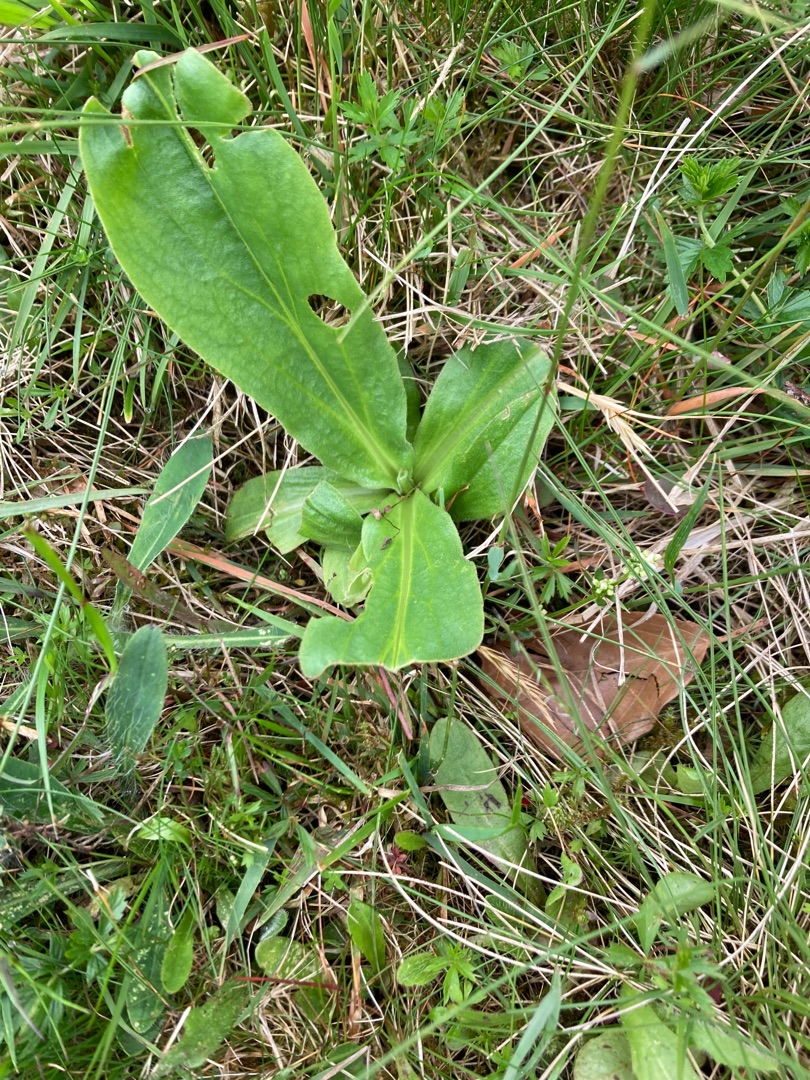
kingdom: Plantae
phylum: Tracheophyta
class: Magnoliopsida
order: Asterales
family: Asteraceae
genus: Arnica
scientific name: Arnica montana
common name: Guldblomme
